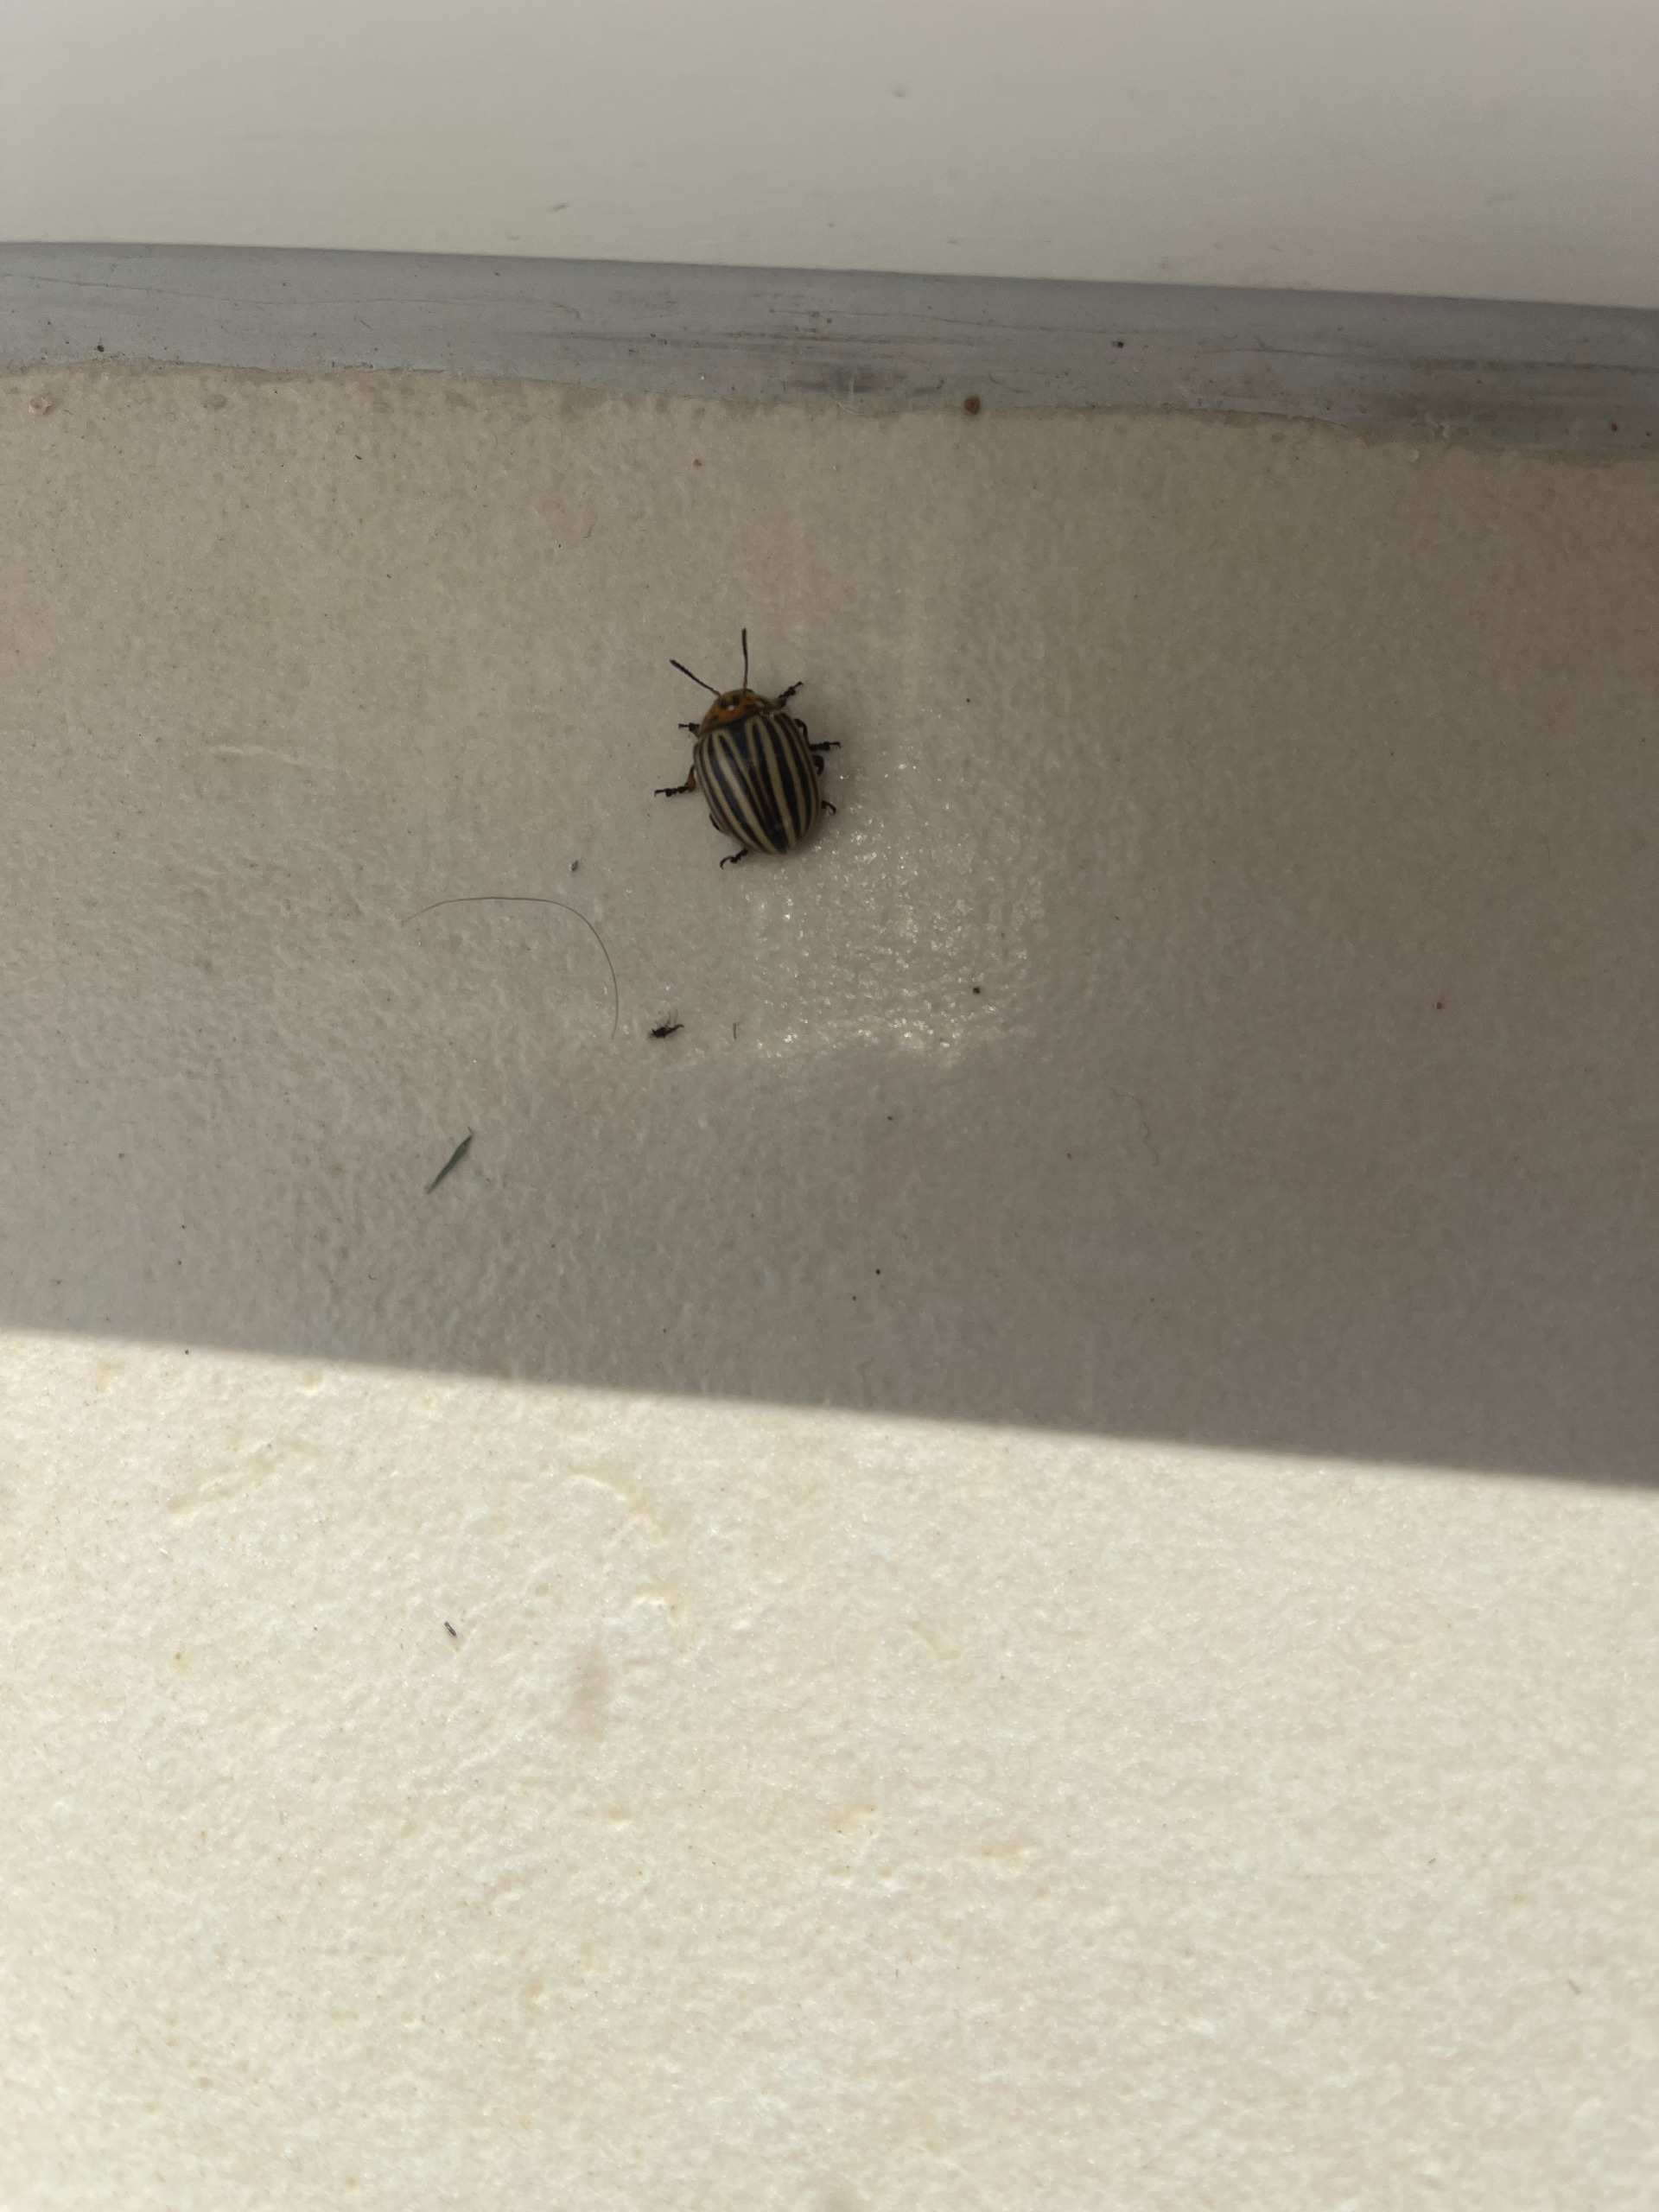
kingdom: Animalia
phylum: Arthropoda
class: Insecta
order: Coleoptera
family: Chrysomelidae
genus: Leptinotarsa
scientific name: Leptinotarsa decemlineata
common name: Coloradobille
